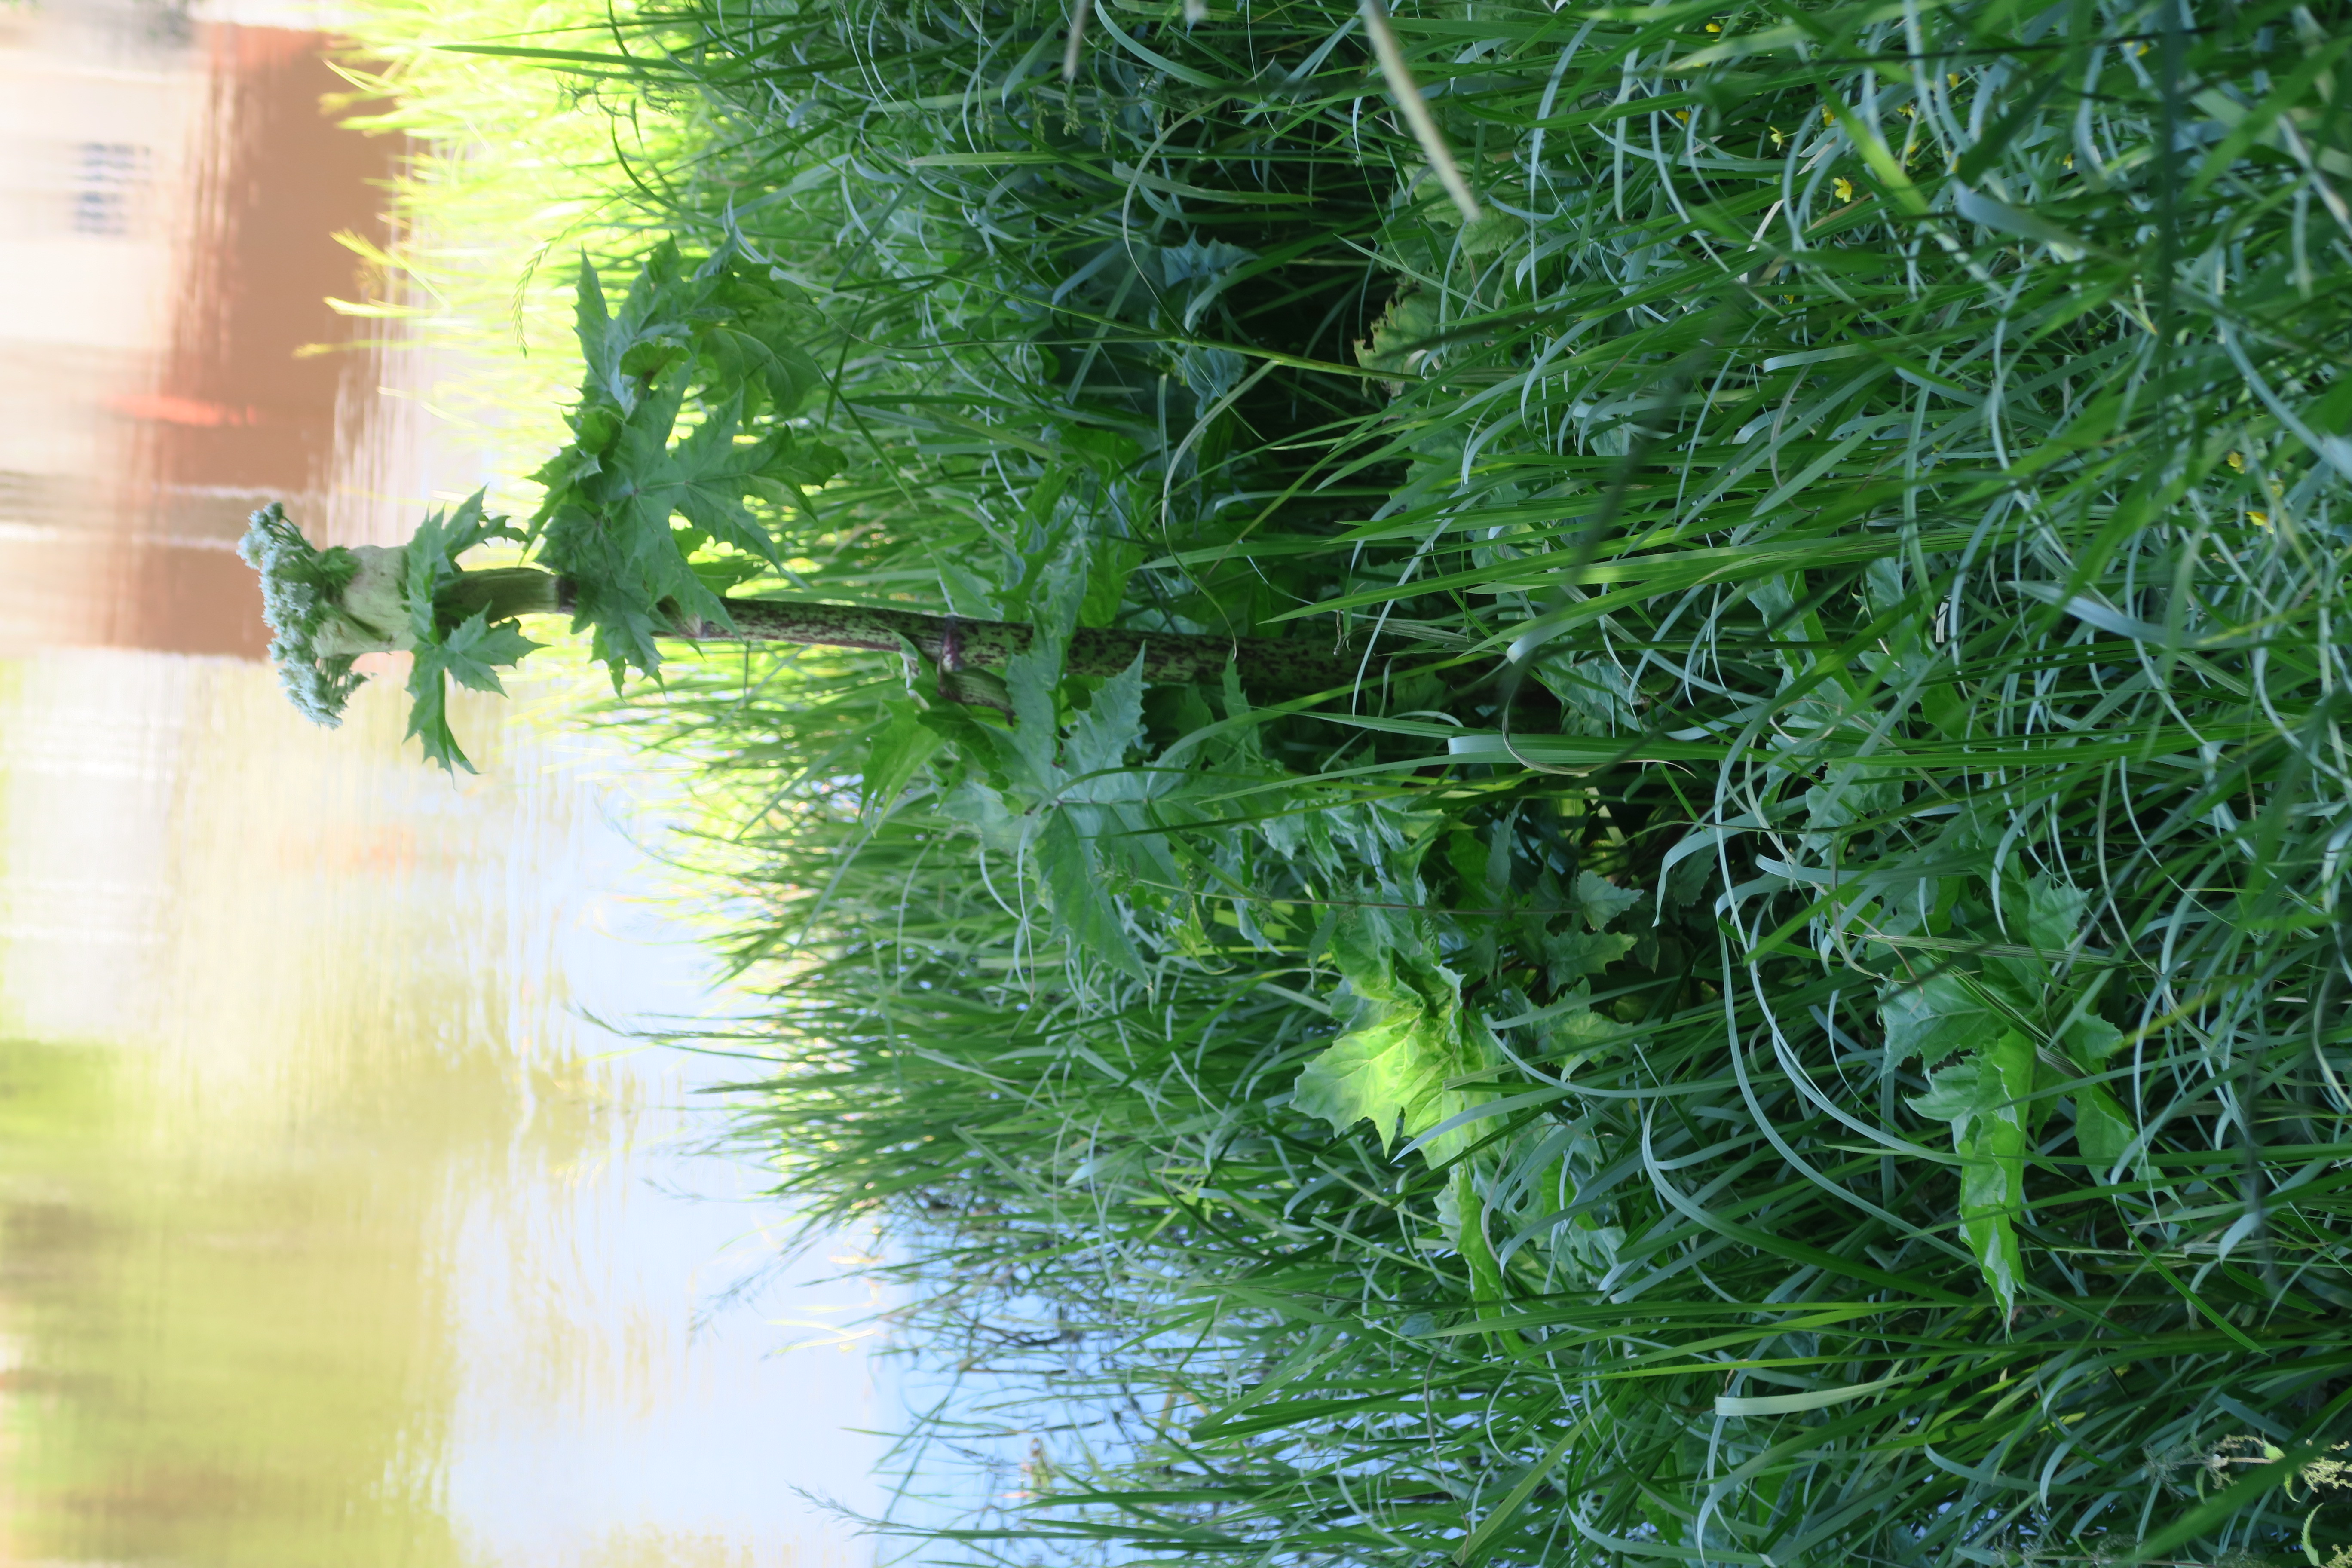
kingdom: Plantae
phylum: Tracheophyta
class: Magnoliopsida
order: Apiales
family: Apiaceae
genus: Heracleum
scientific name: Heracleum
